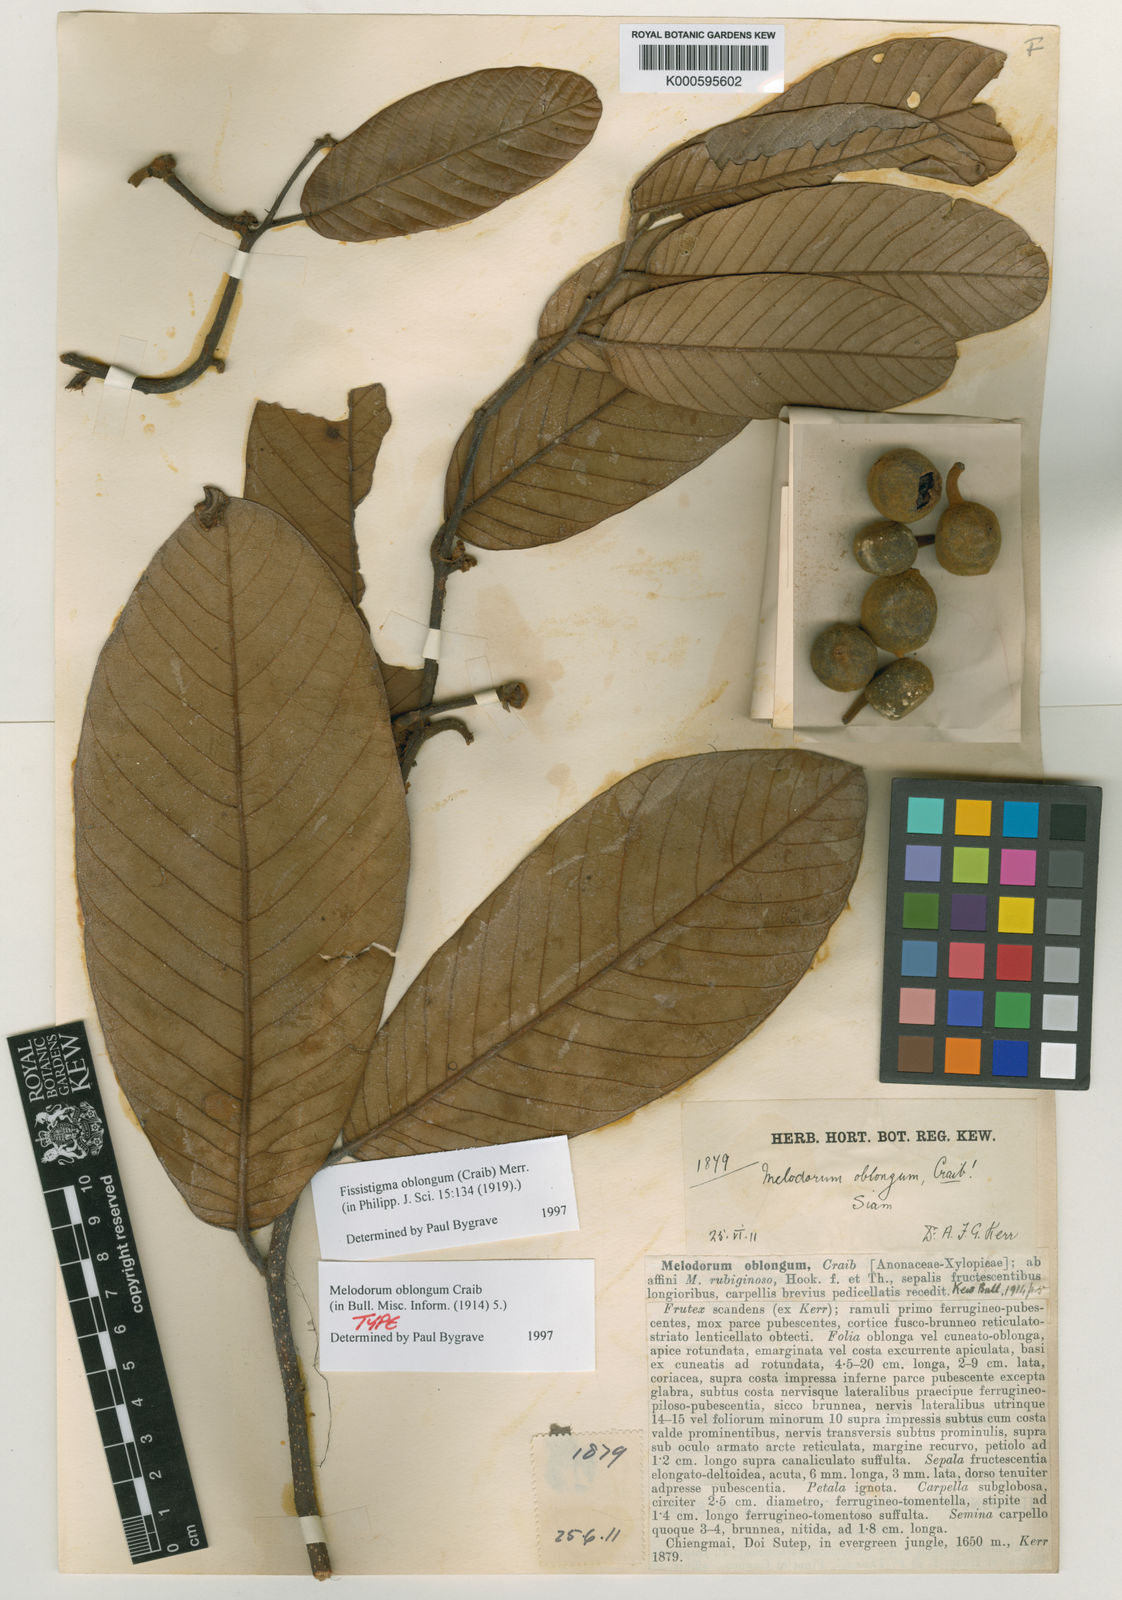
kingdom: Plantae
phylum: Tracheophyta
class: Magnoliopsida
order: Magnoliales
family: Annonaceae
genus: Melodorum
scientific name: Melodorum oblongum
